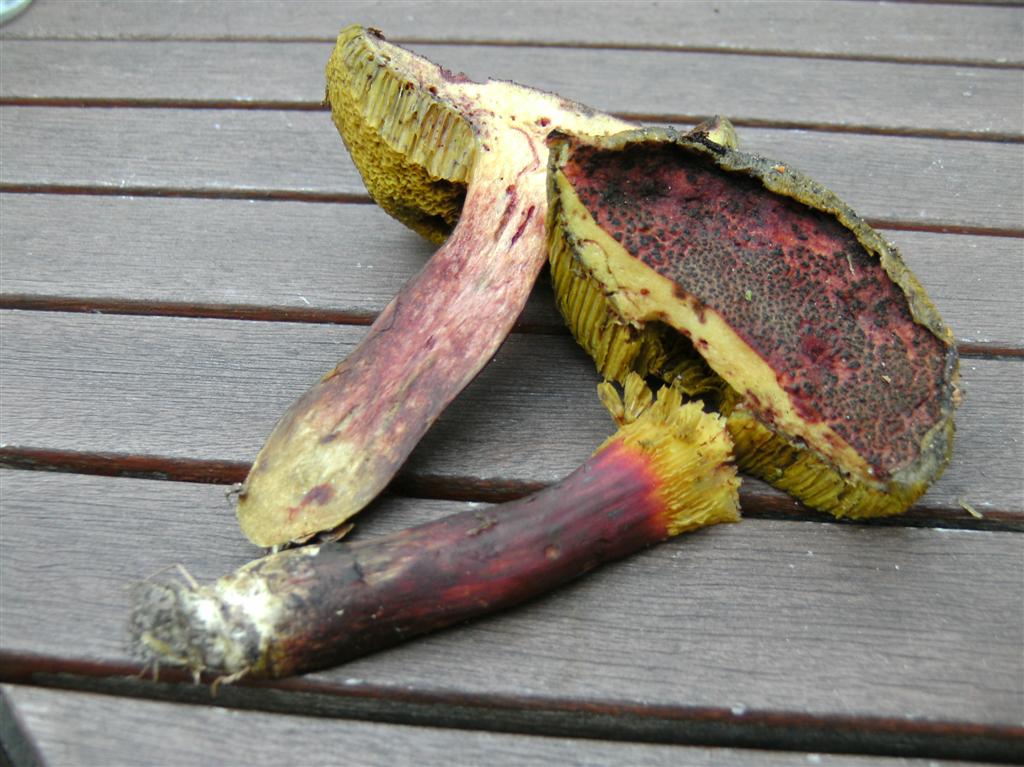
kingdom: Fungi
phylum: Basidiomycota
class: Agaricomycetes
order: Boletales
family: Boletaceae
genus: Hortiboletus
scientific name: Hortiboletus rubellus
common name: blodrød rørhat
